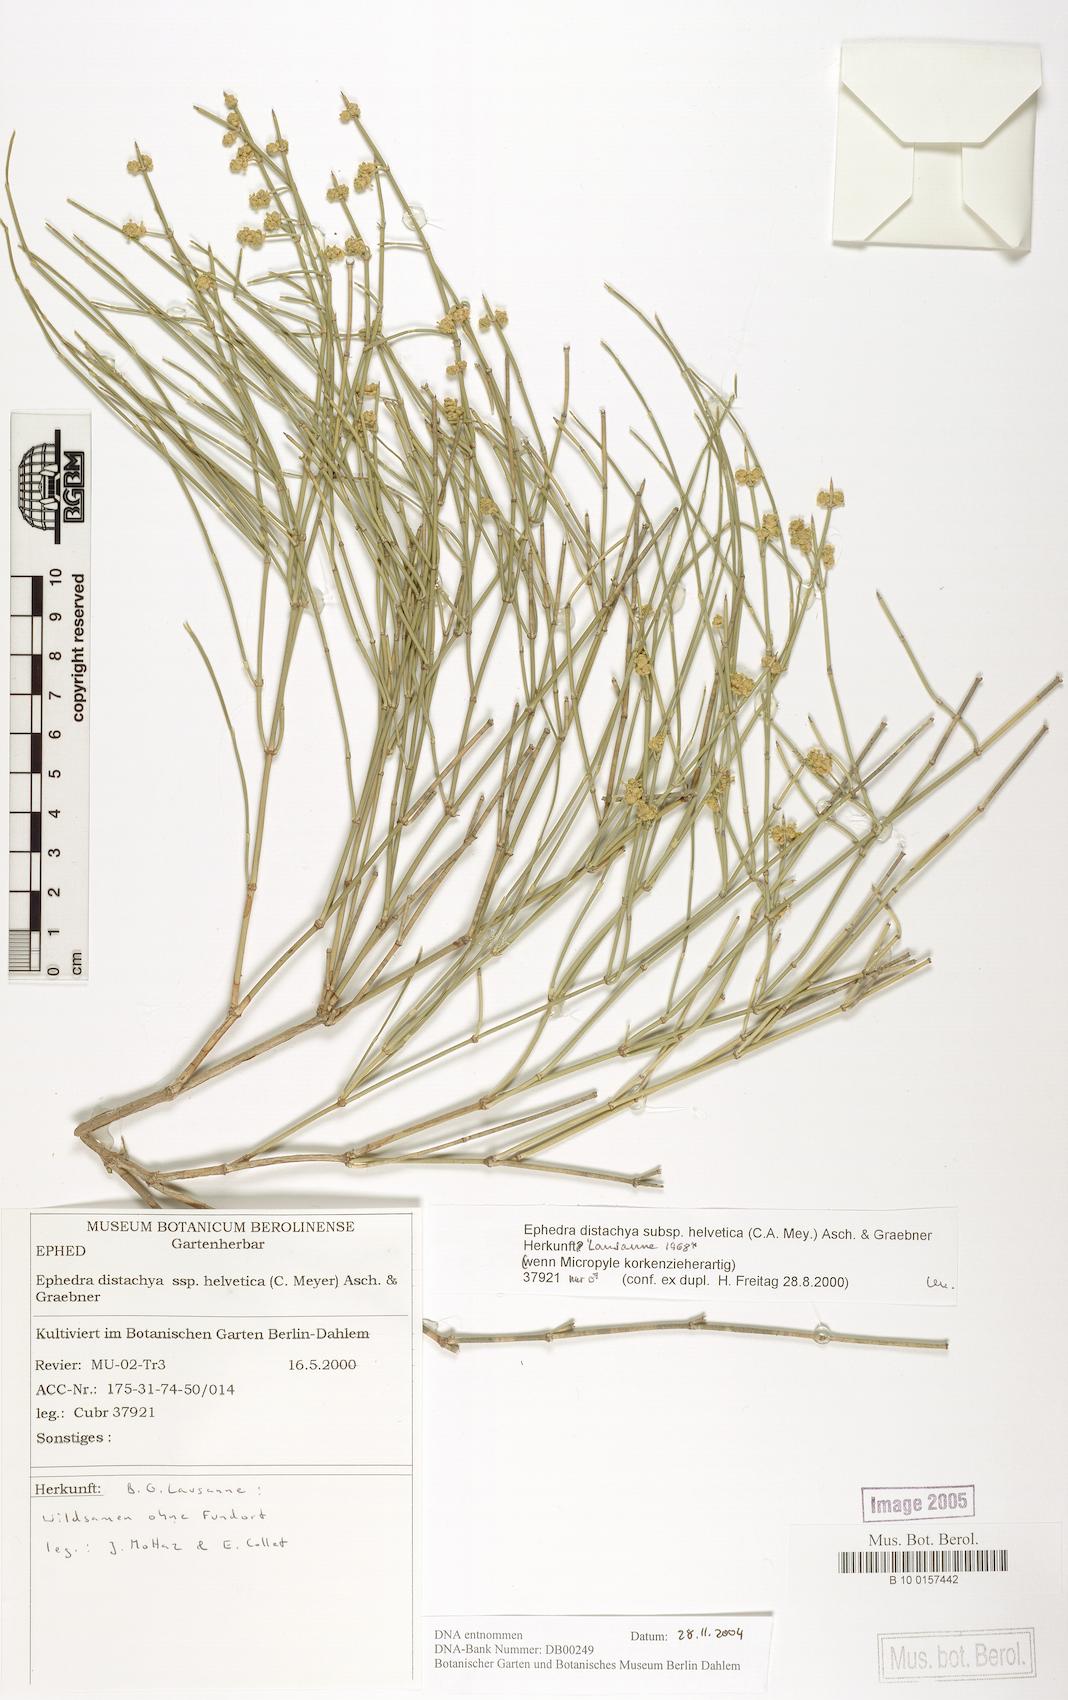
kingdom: Plantae
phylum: Tracheophyta
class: Gnetopsida
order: Ephedrales
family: Ephedraceae
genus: Ephedra
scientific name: Ephedra distachya
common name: Sea grape
